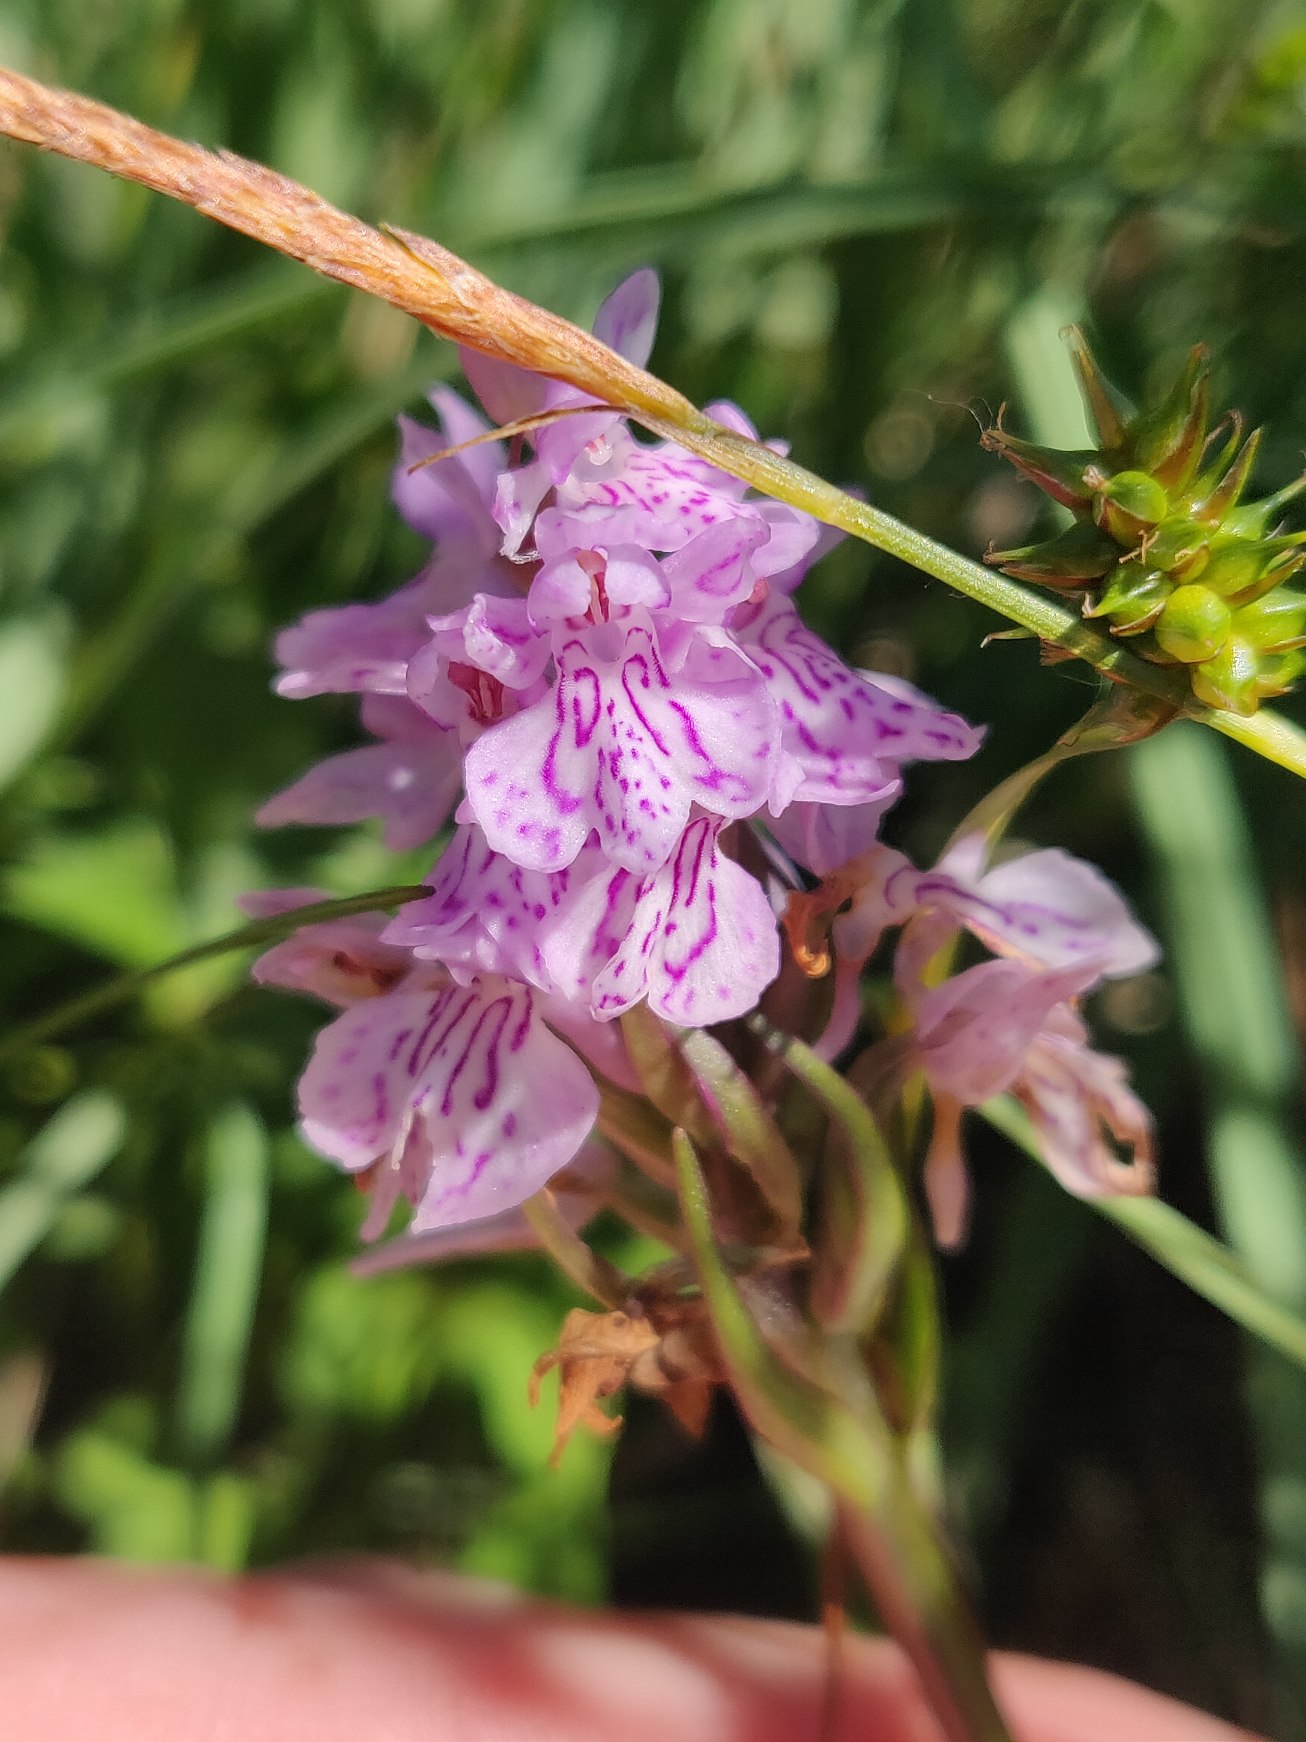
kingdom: Plantae
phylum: Tracheophyta
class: Liliopsida
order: Asparagales
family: Orchidaceae
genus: Dactylorhiza
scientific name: Dactylorhiza maculata
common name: Plettet gøgeurt
